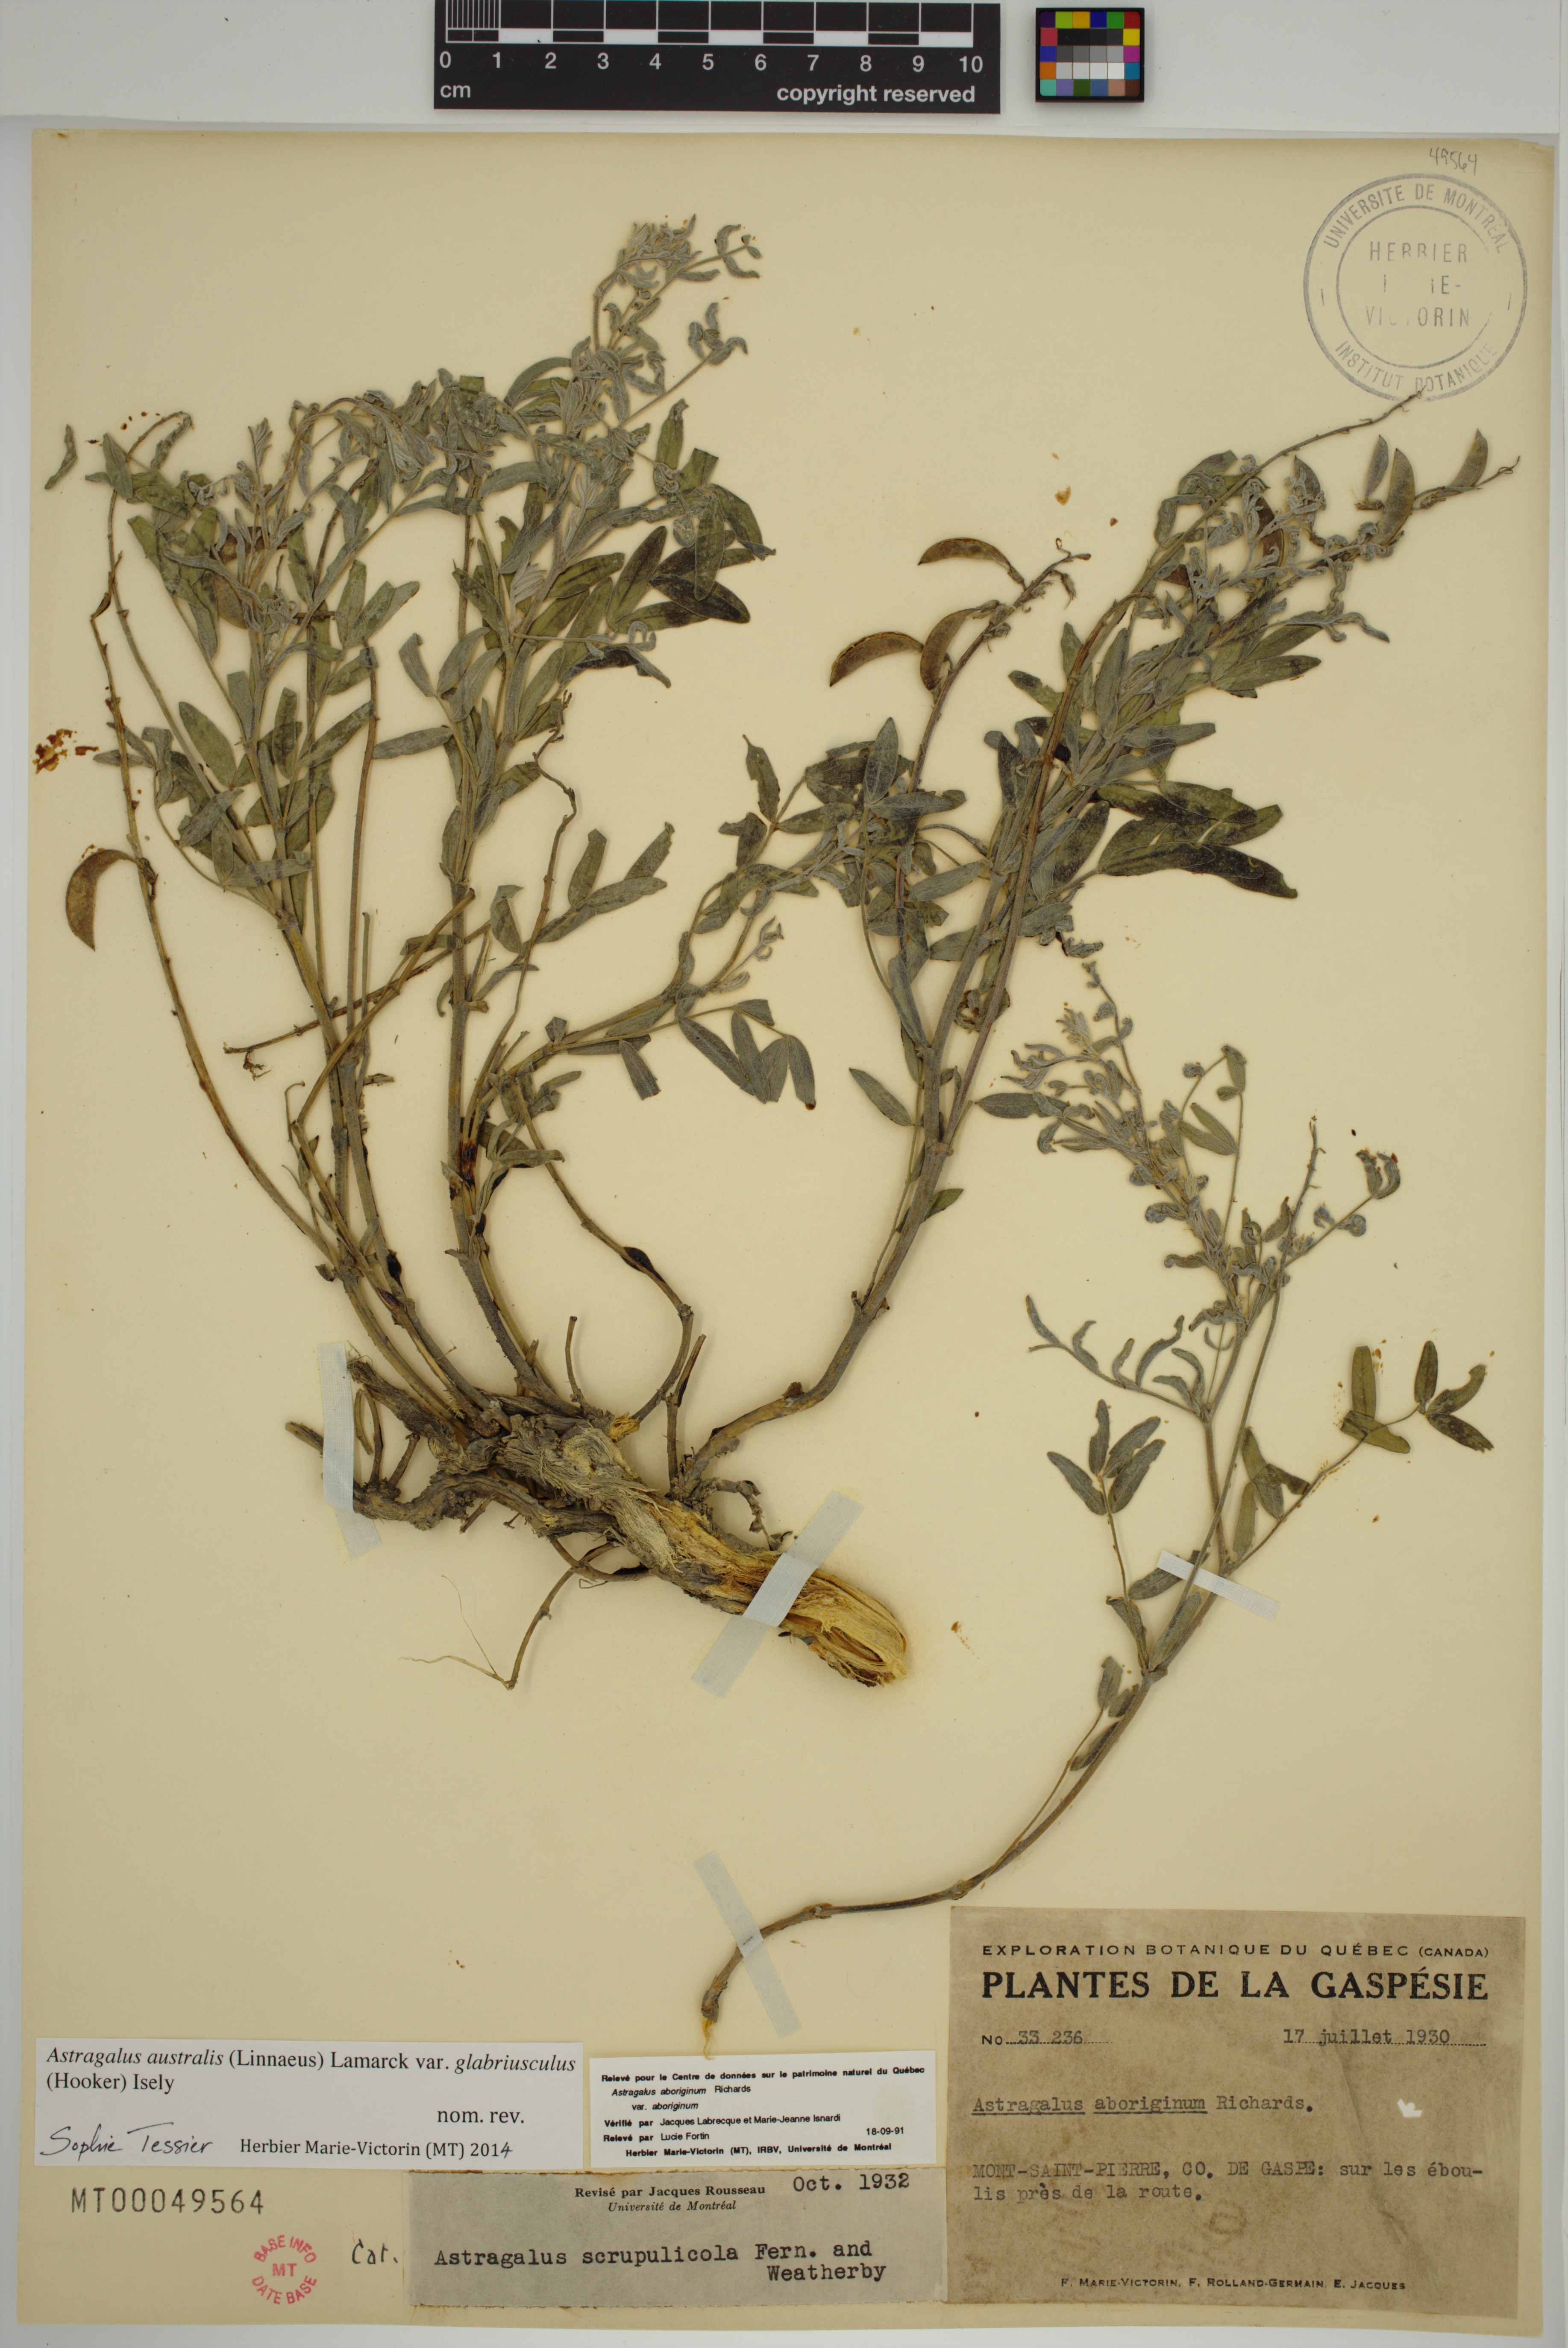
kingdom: Plantae
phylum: Tracheophyta
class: Magnoliopsida
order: Fabales
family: Fabaceae
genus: Astragalus
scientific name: Astragalus aboriginorum
